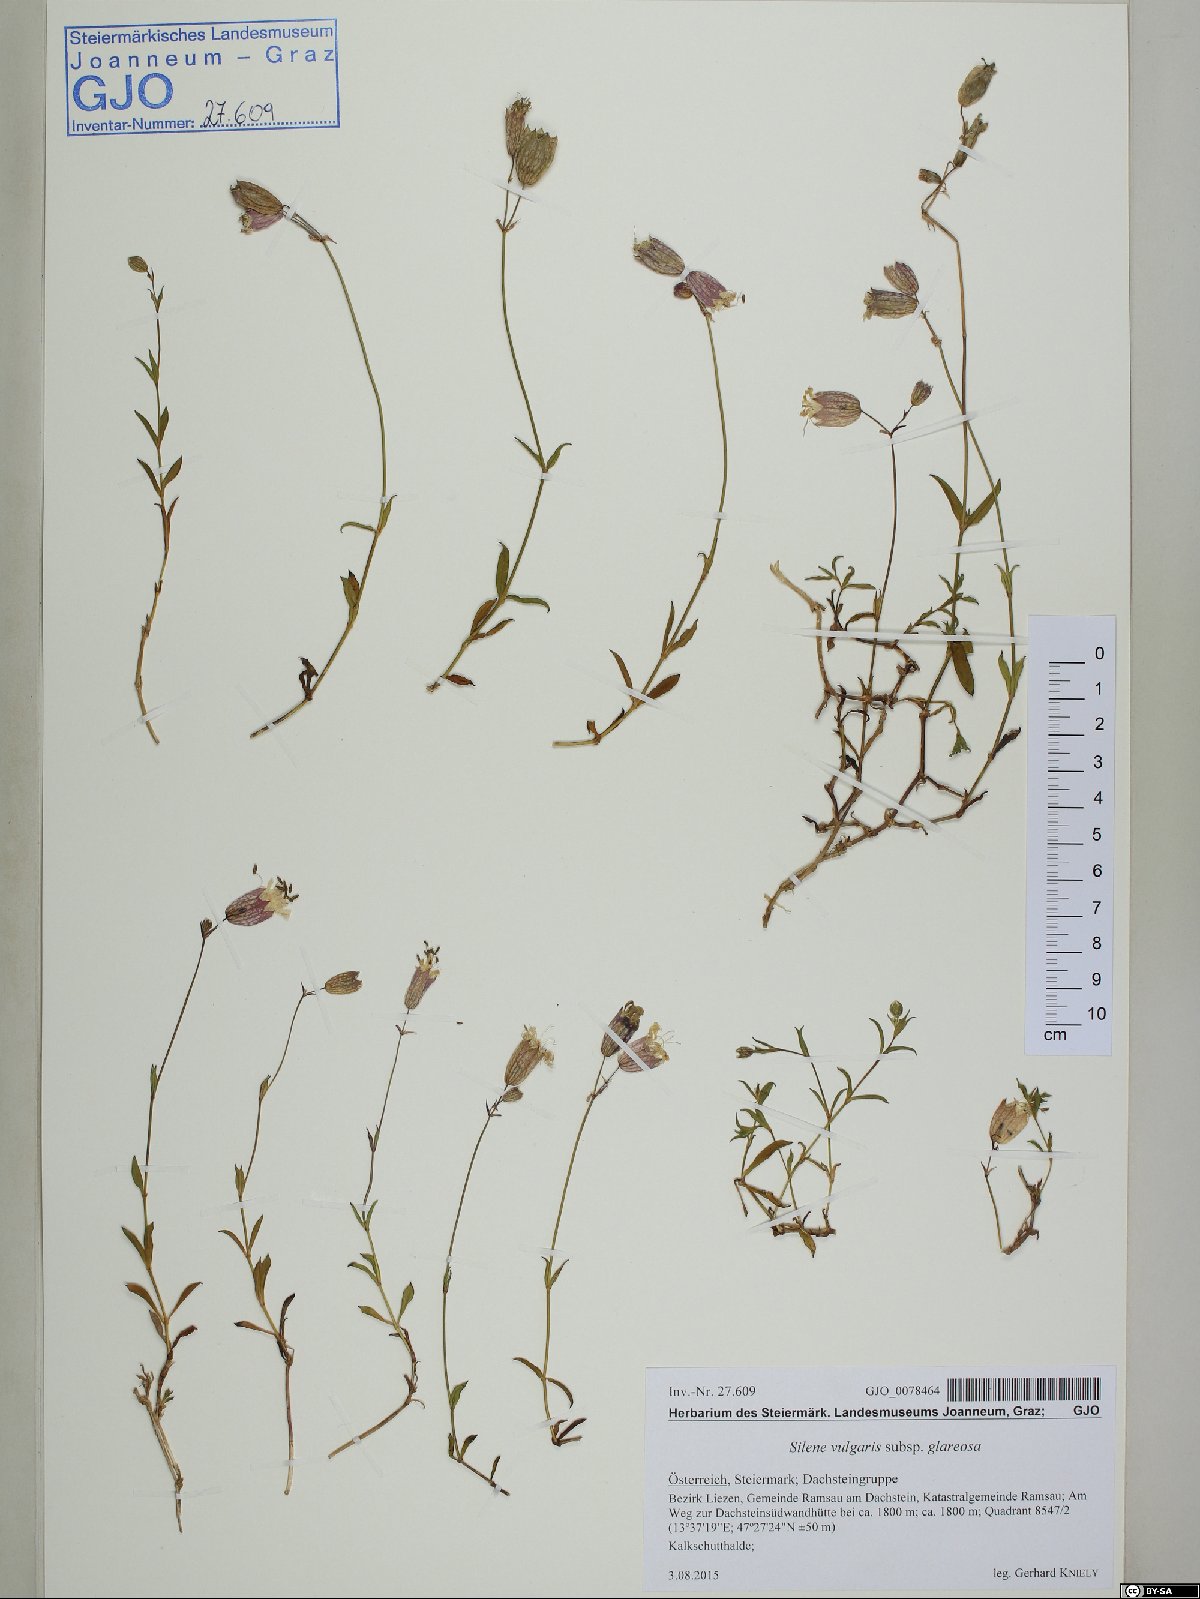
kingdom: Plantae
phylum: Tracheophyta
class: Magnoliopsida
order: Caryophyllales
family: Caryophyllaceae
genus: Silene
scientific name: Silene glareosa
